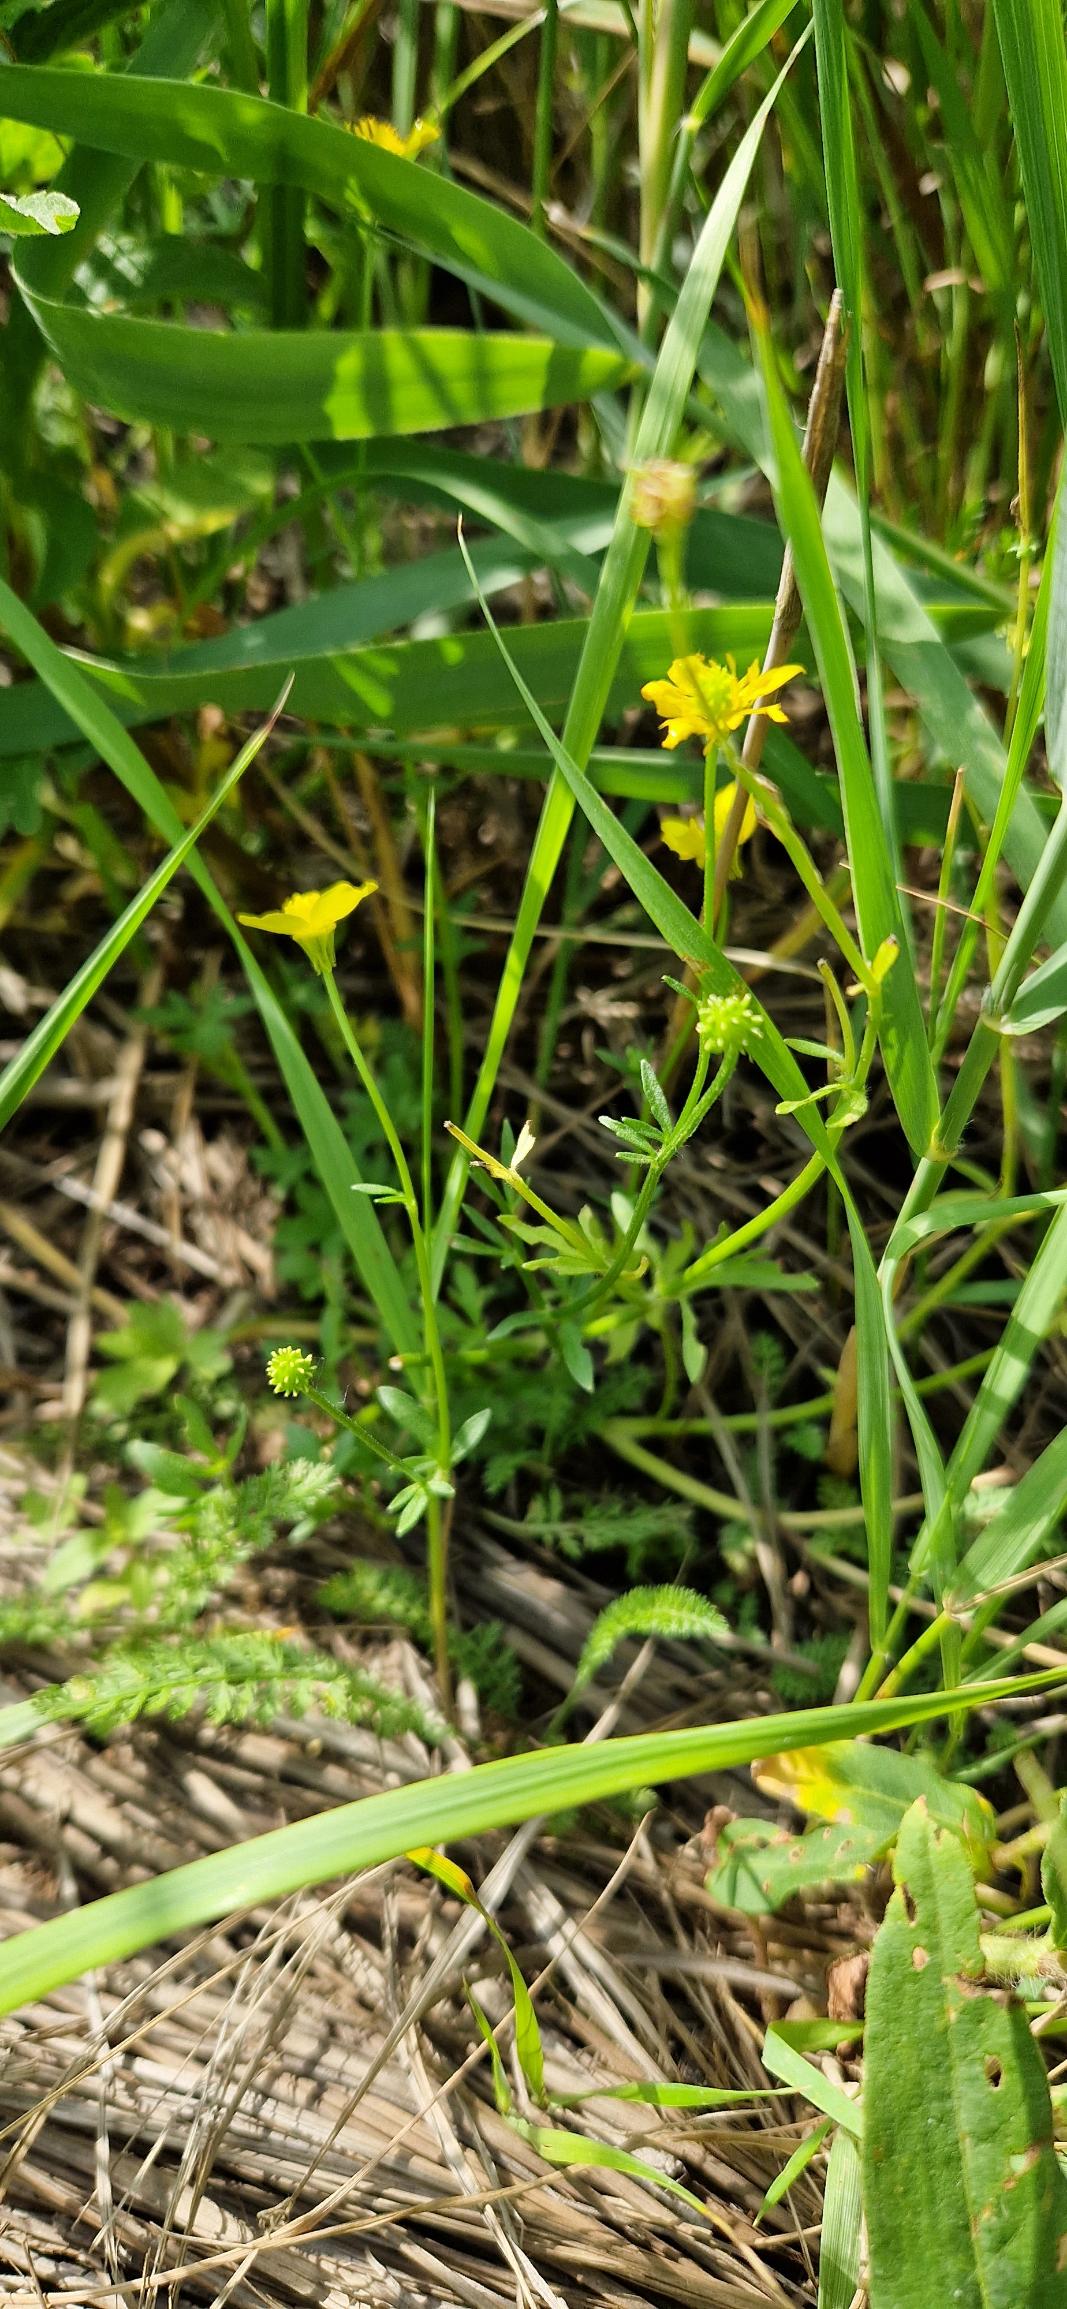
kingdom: Plantae
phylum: Tracheophyta
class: Magnoliopsida
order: Ranunculales
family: Ranunculaceae
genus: Ranunculus
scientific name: Ranunculus sardous
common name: Stivhåret ranunkel
